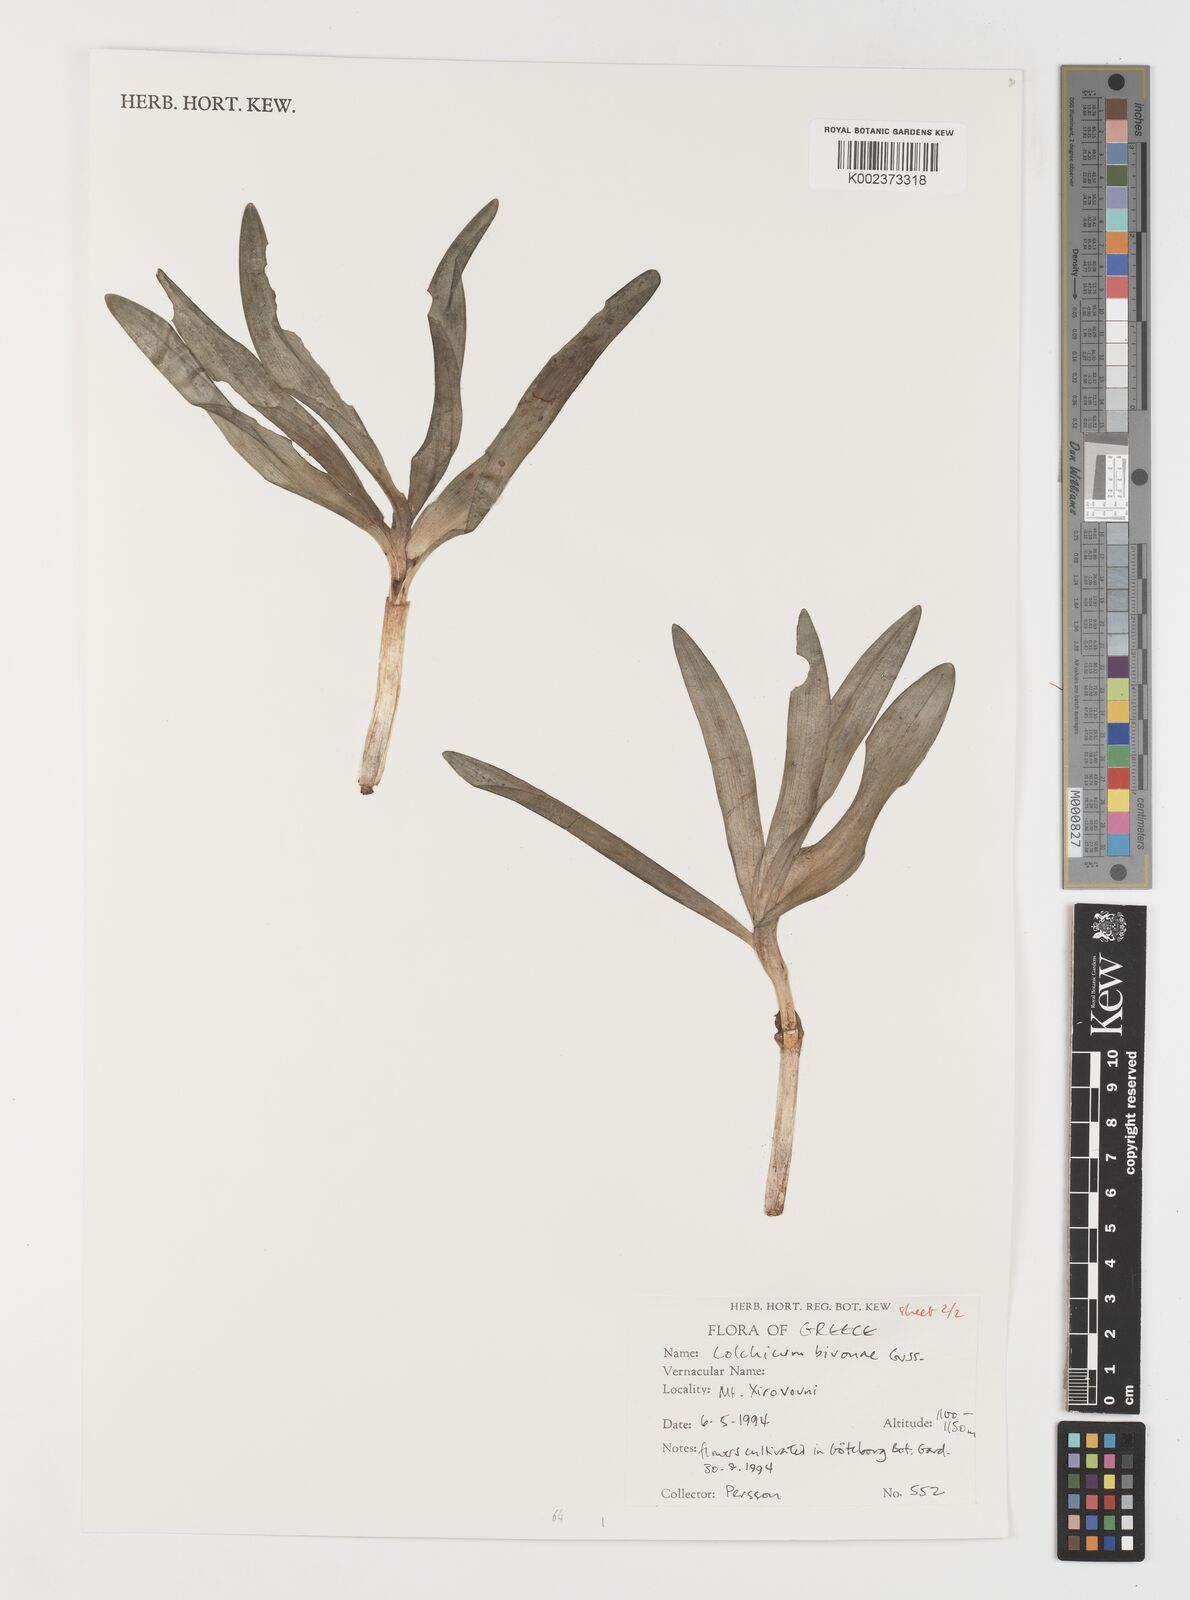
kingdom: Plantae
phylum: Tracheophyta
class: Liliopsida
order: Liliales
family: Colchicaceae
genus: Colchicum
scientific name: Colchicum bivonae
